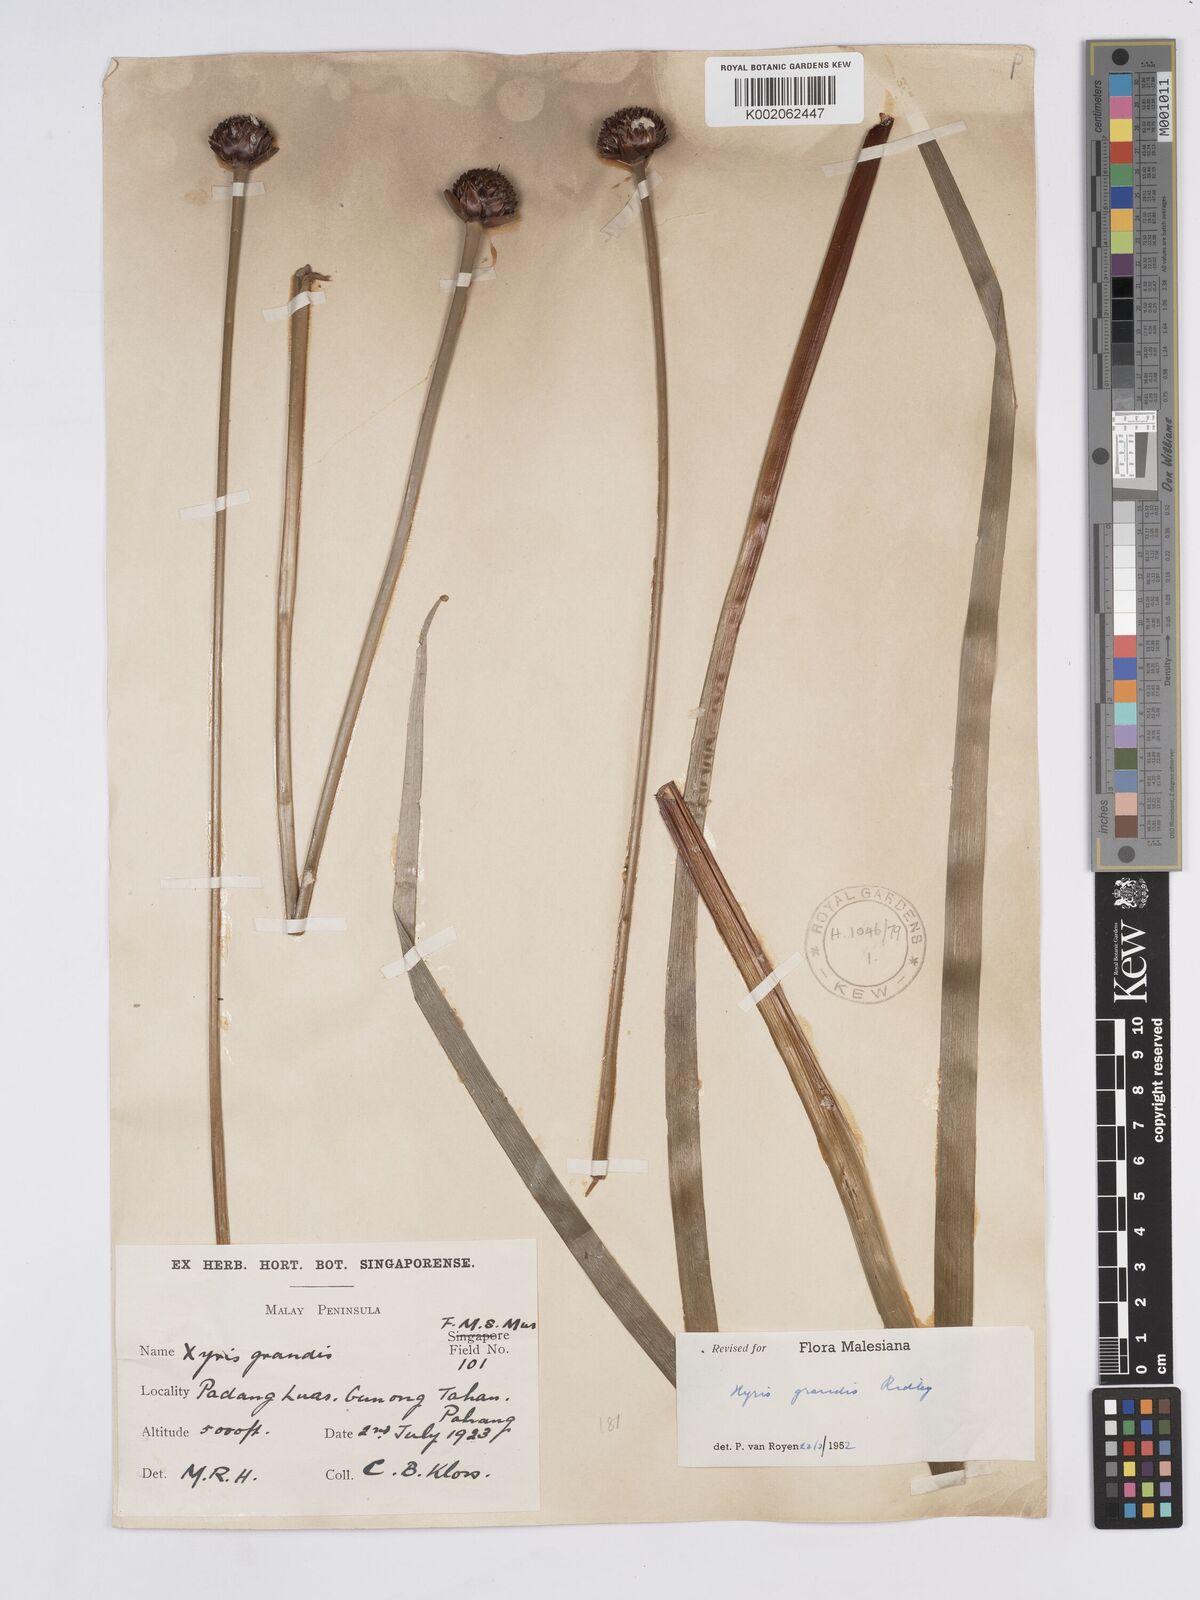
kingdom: Plantae
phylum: Tracheophyta
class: Liliopsida
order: Poales
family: Xyridaceae
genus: Xyris
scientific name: Xyris grandis
